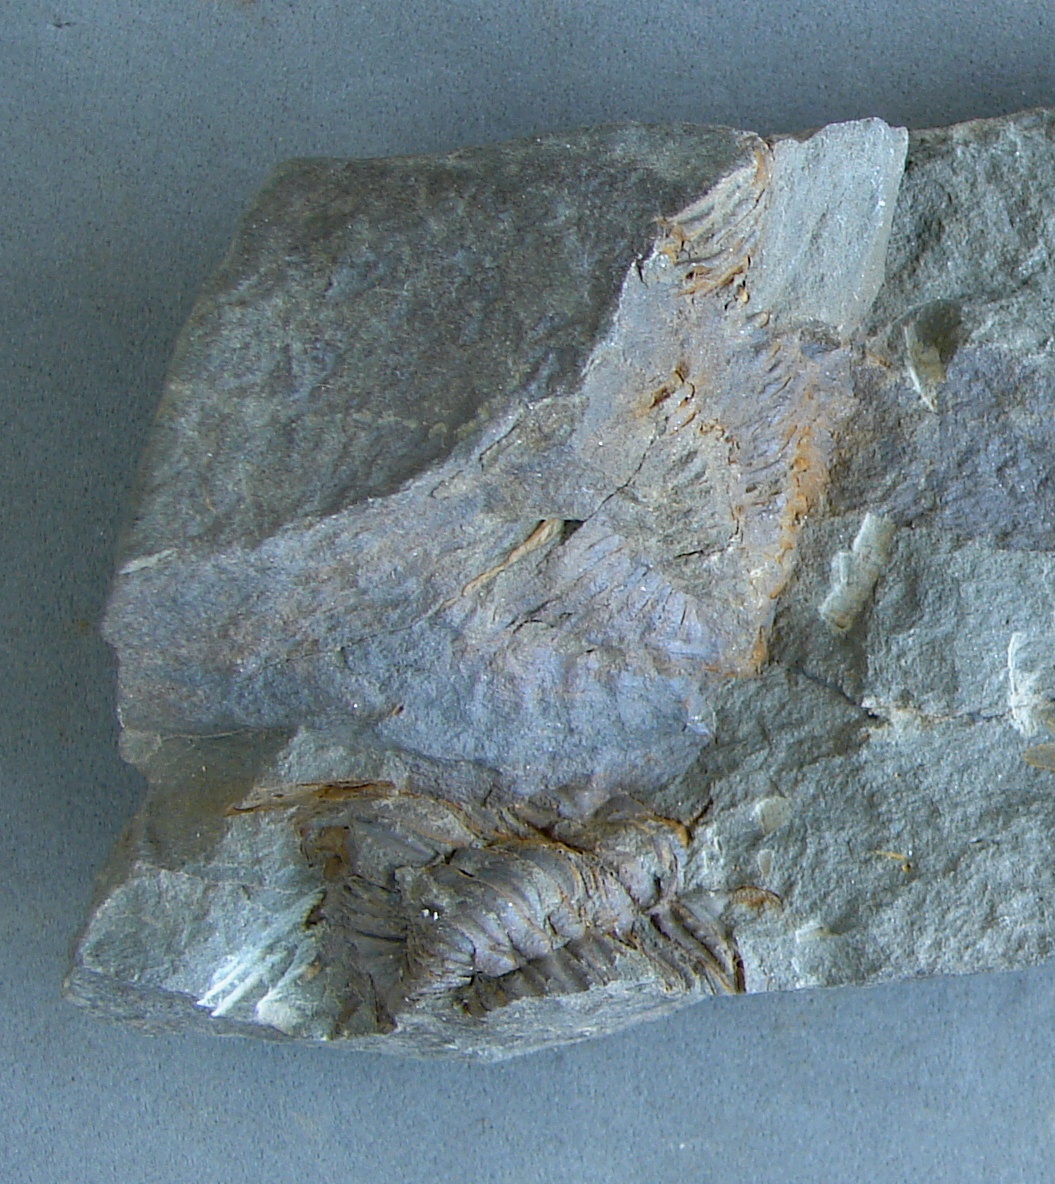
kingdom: Animalia
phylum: Arthropoda
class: Trilobita
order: Phacopida
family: Calmoniidae
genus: Treveropyge
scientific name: Treveropyge wiltziana
